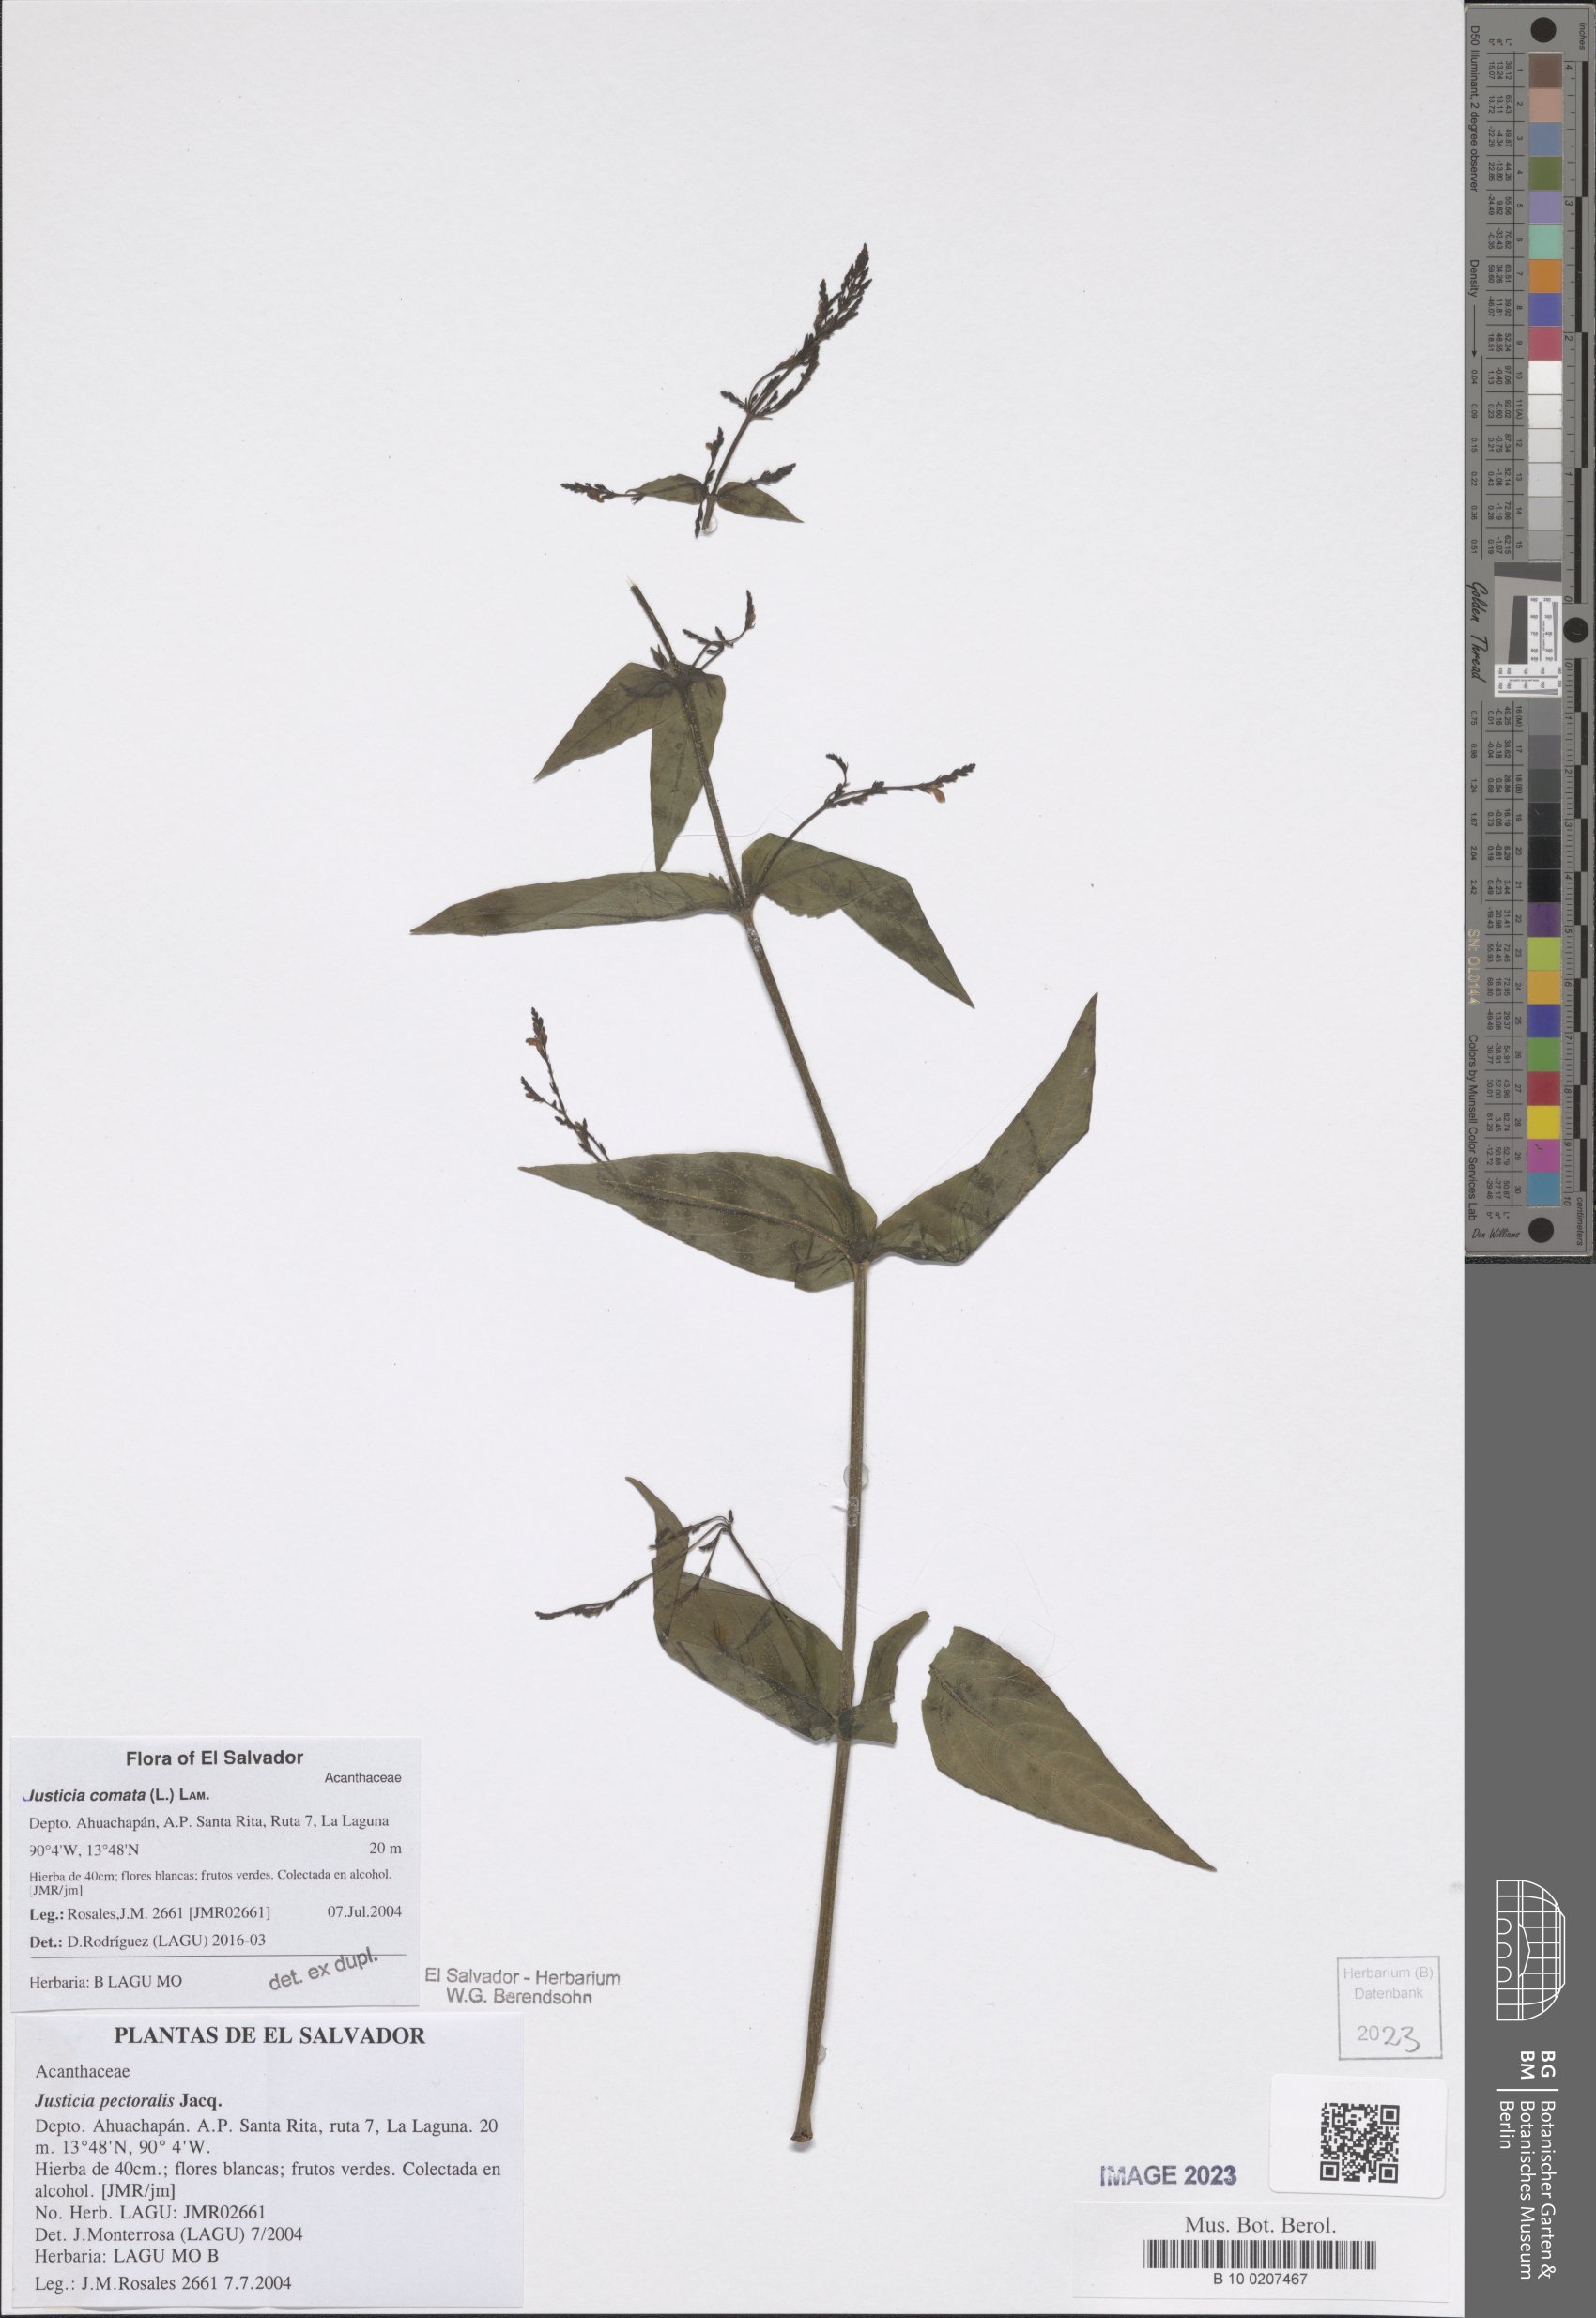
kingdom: Plantae
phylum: Tracheophyta
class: Magnoliopsida
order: Lamiales
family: Acanthaceae
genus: Dianthera
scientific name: Dianthera comata
